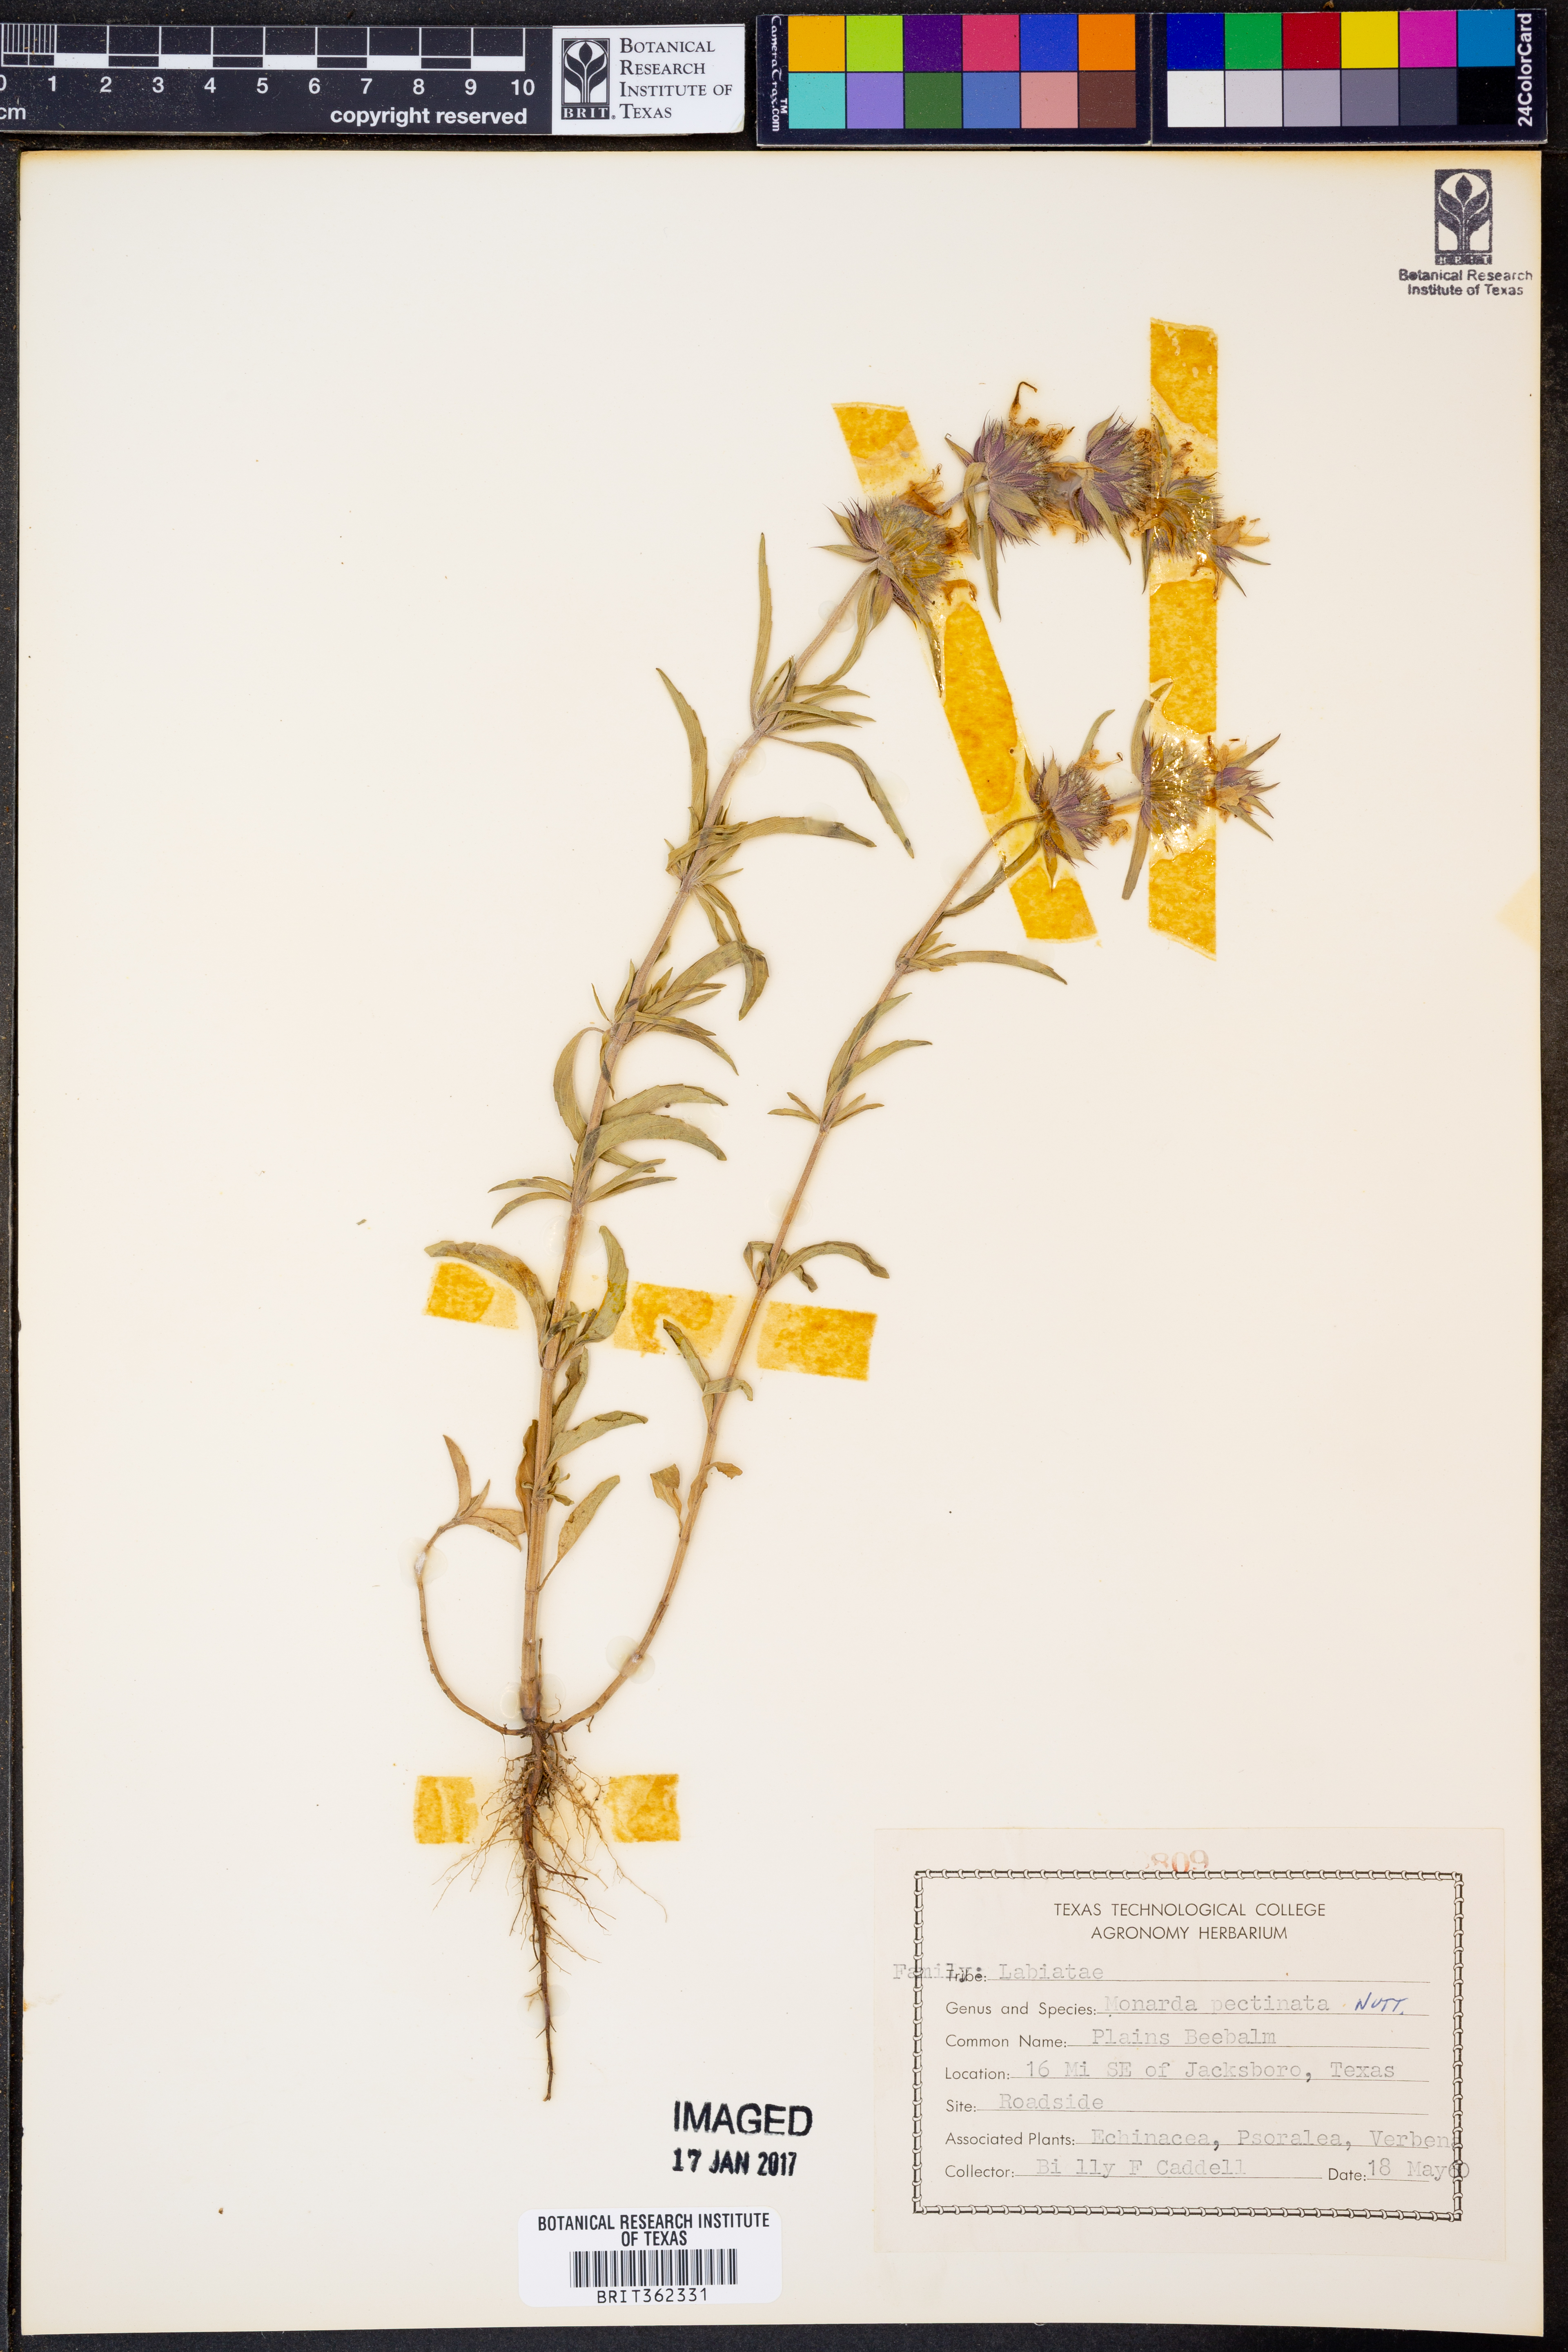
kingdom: Plantae
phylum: Tracheophyta
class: Magnoliopsida
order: Lamiales
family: Lamiaceae
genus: Monarda
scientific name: Monarda pectinata
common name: Plains beebalm
